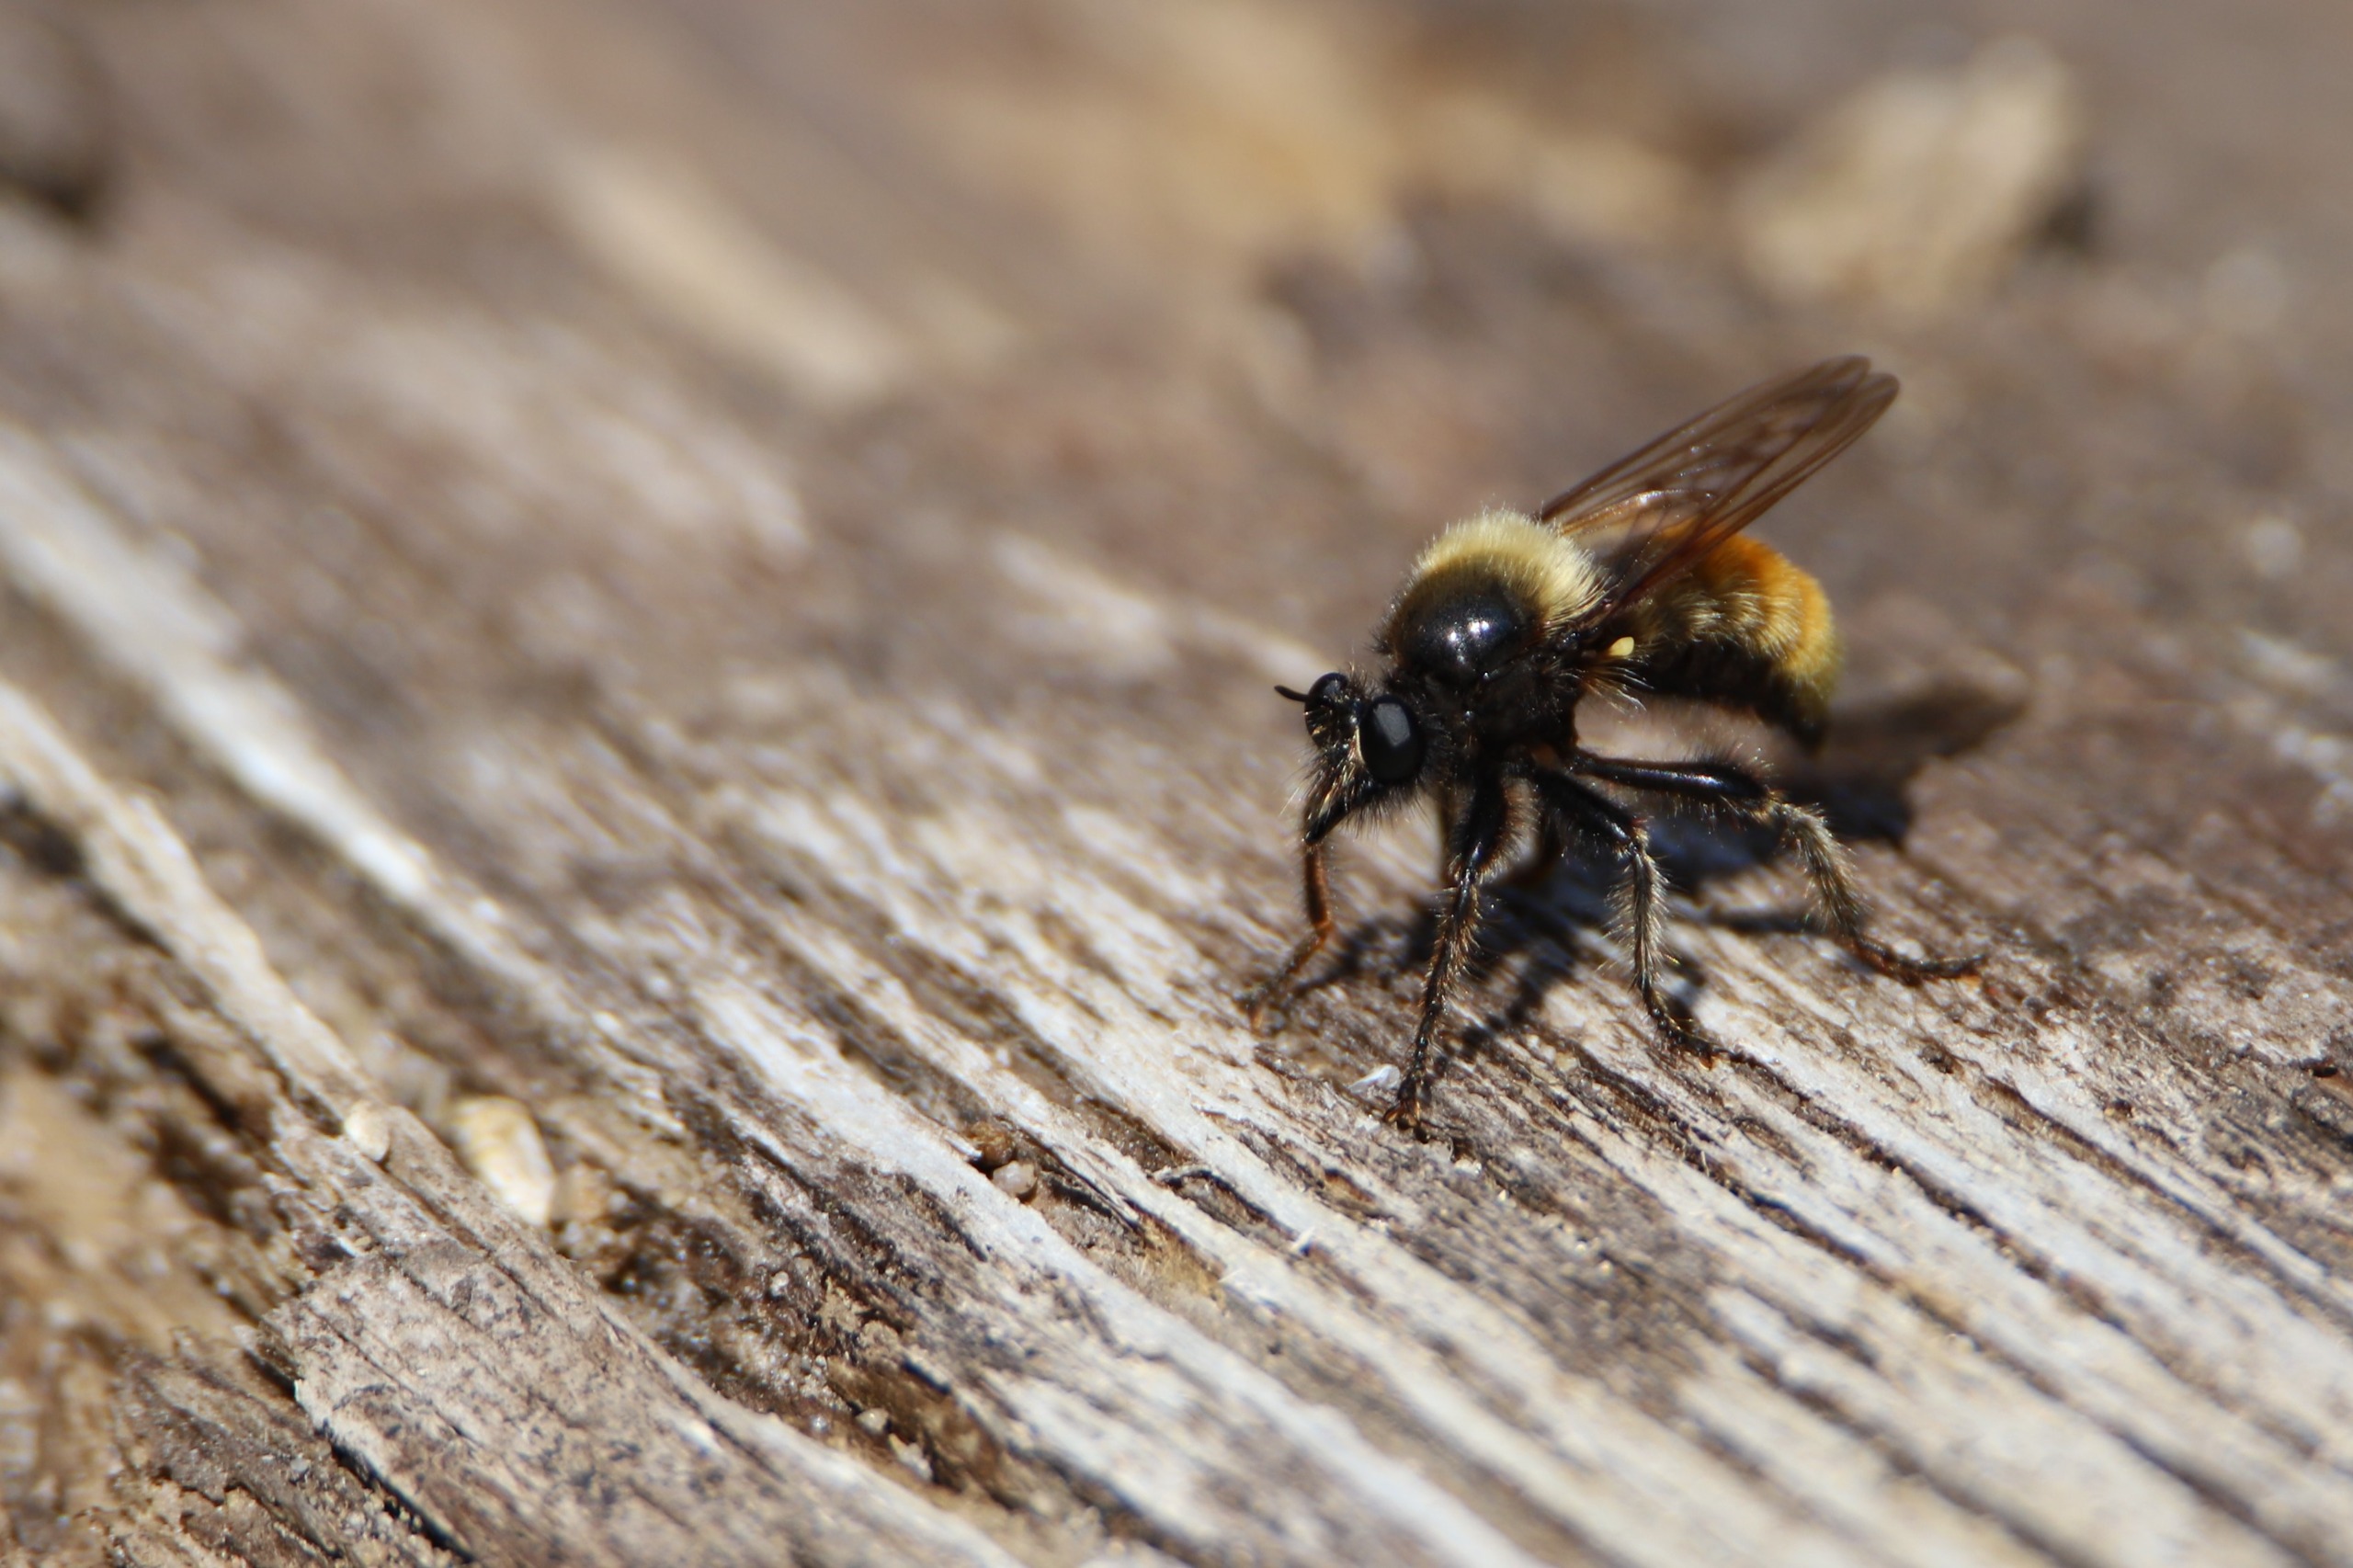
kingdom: Animalia
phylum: Arthropoda
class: Insecta
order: Diptera
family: Asilidae
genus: Laphria
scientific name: Laphria flava
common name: Gul vedrovflue
